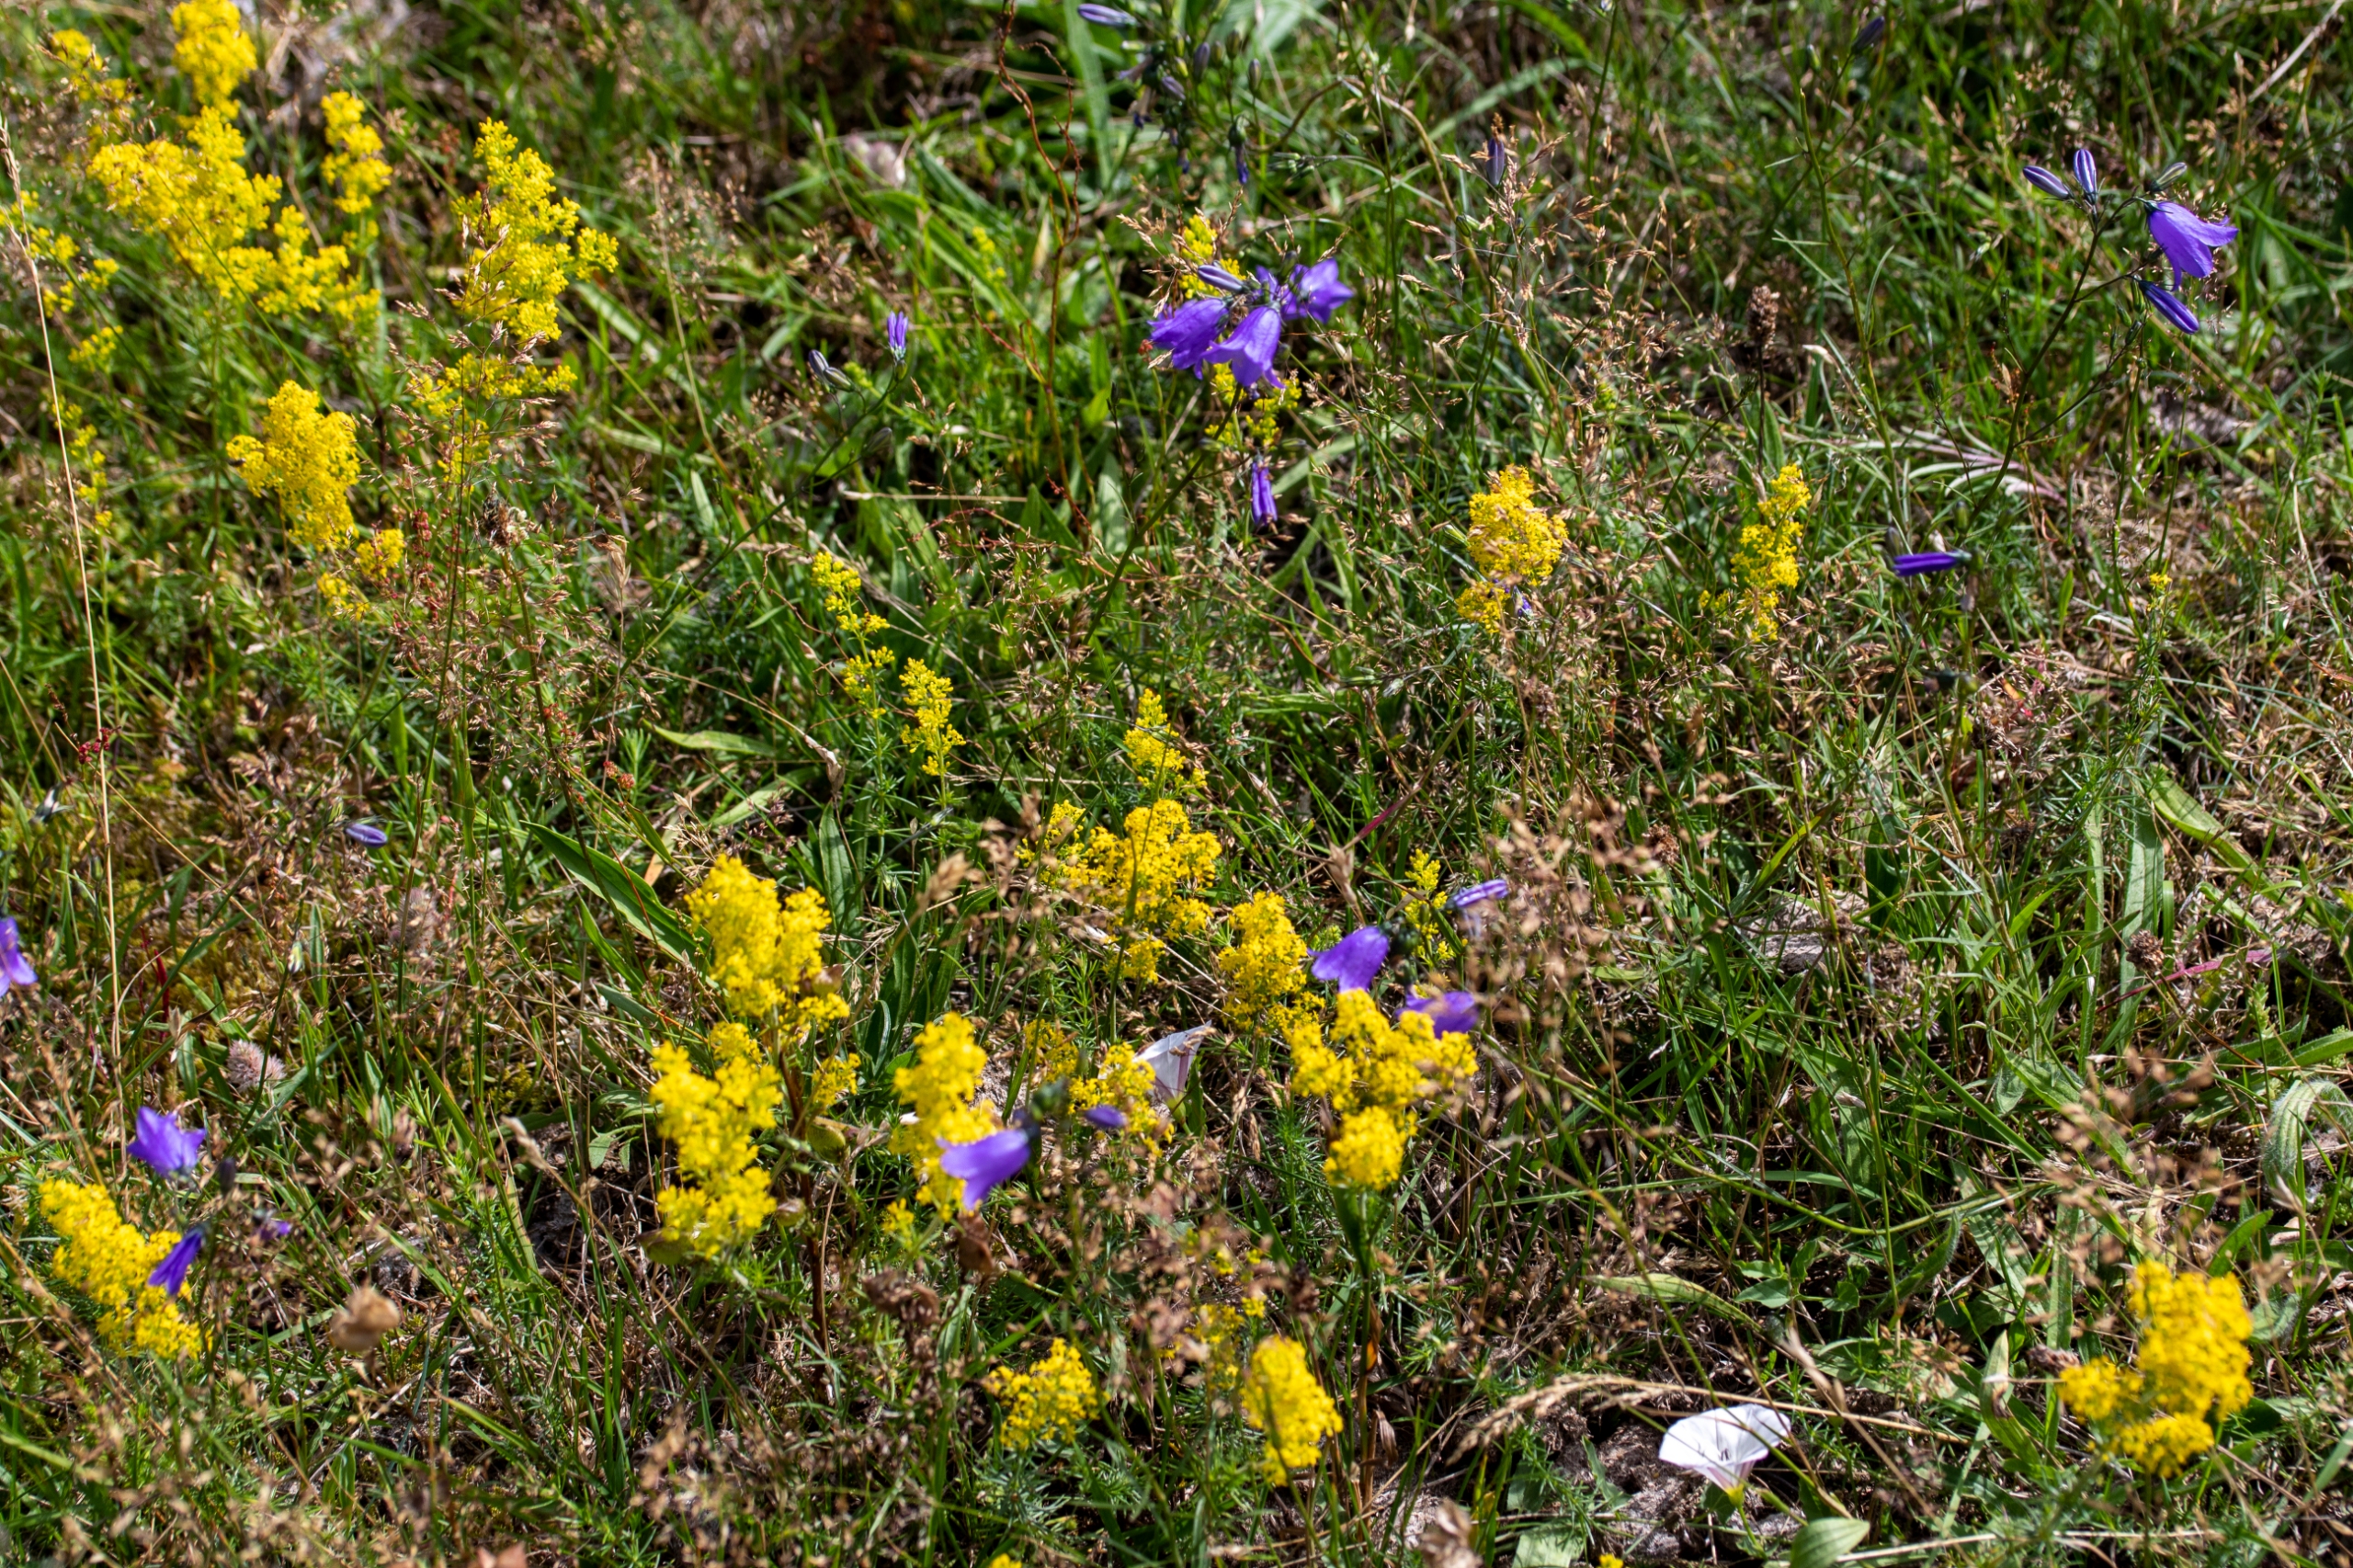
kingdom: Plantae
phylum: Tracheophyta
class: Magnoliopsida
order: Gentianales
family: Rubiaceae
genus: Galium
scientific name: Galium verum
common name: Gul snerre
